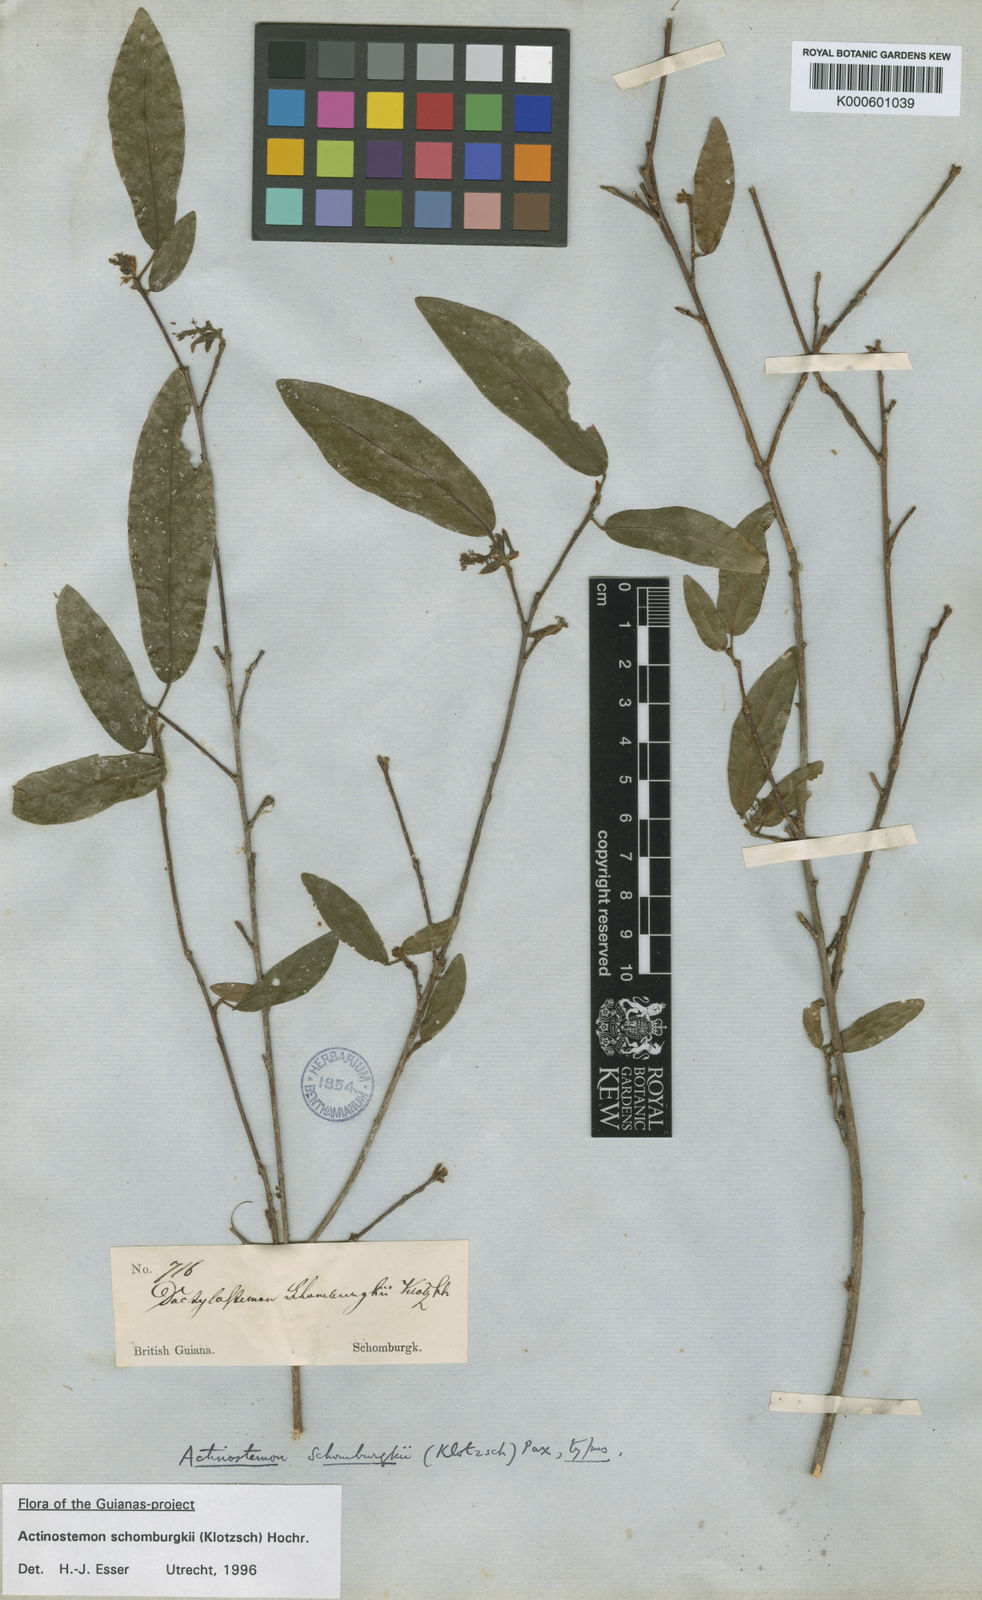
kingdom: Plantae
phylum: Tracheophyta
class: Magnoliopsida
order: Malpighiales
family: Euphorbiaceae
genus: Actinostemon
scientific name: Actinostemon schomburgkii
